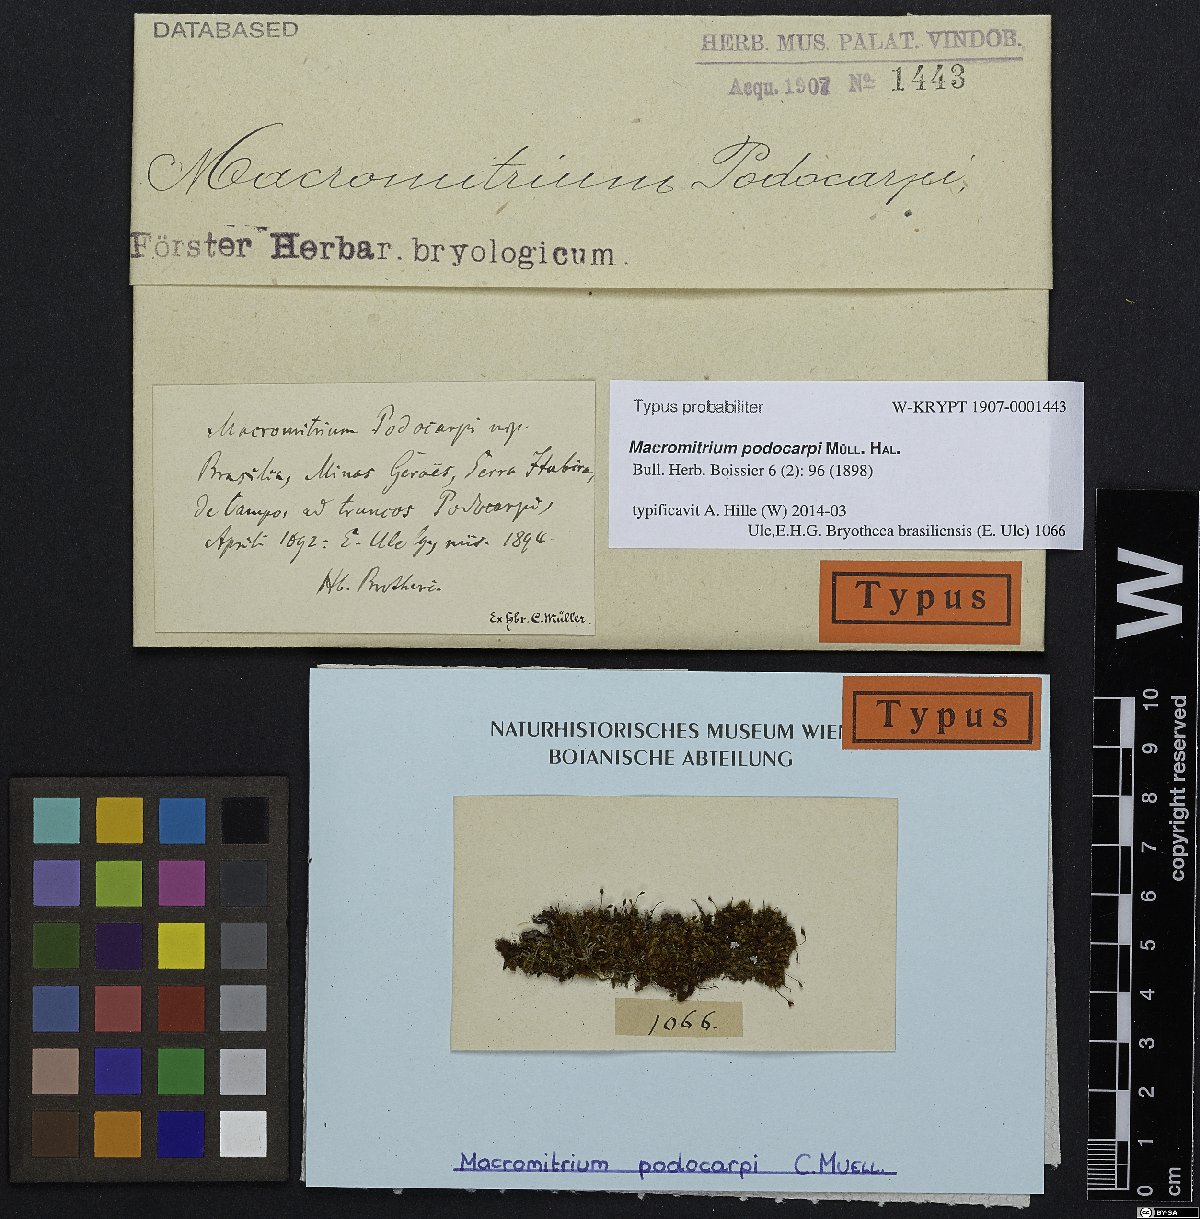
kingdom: Plantae
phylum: Bryophyta
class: Bryopsida
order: Orthotrichales
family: Orthotrichaceae
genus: Macromitrium
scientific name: Macromitrium pseudofimbriatum
